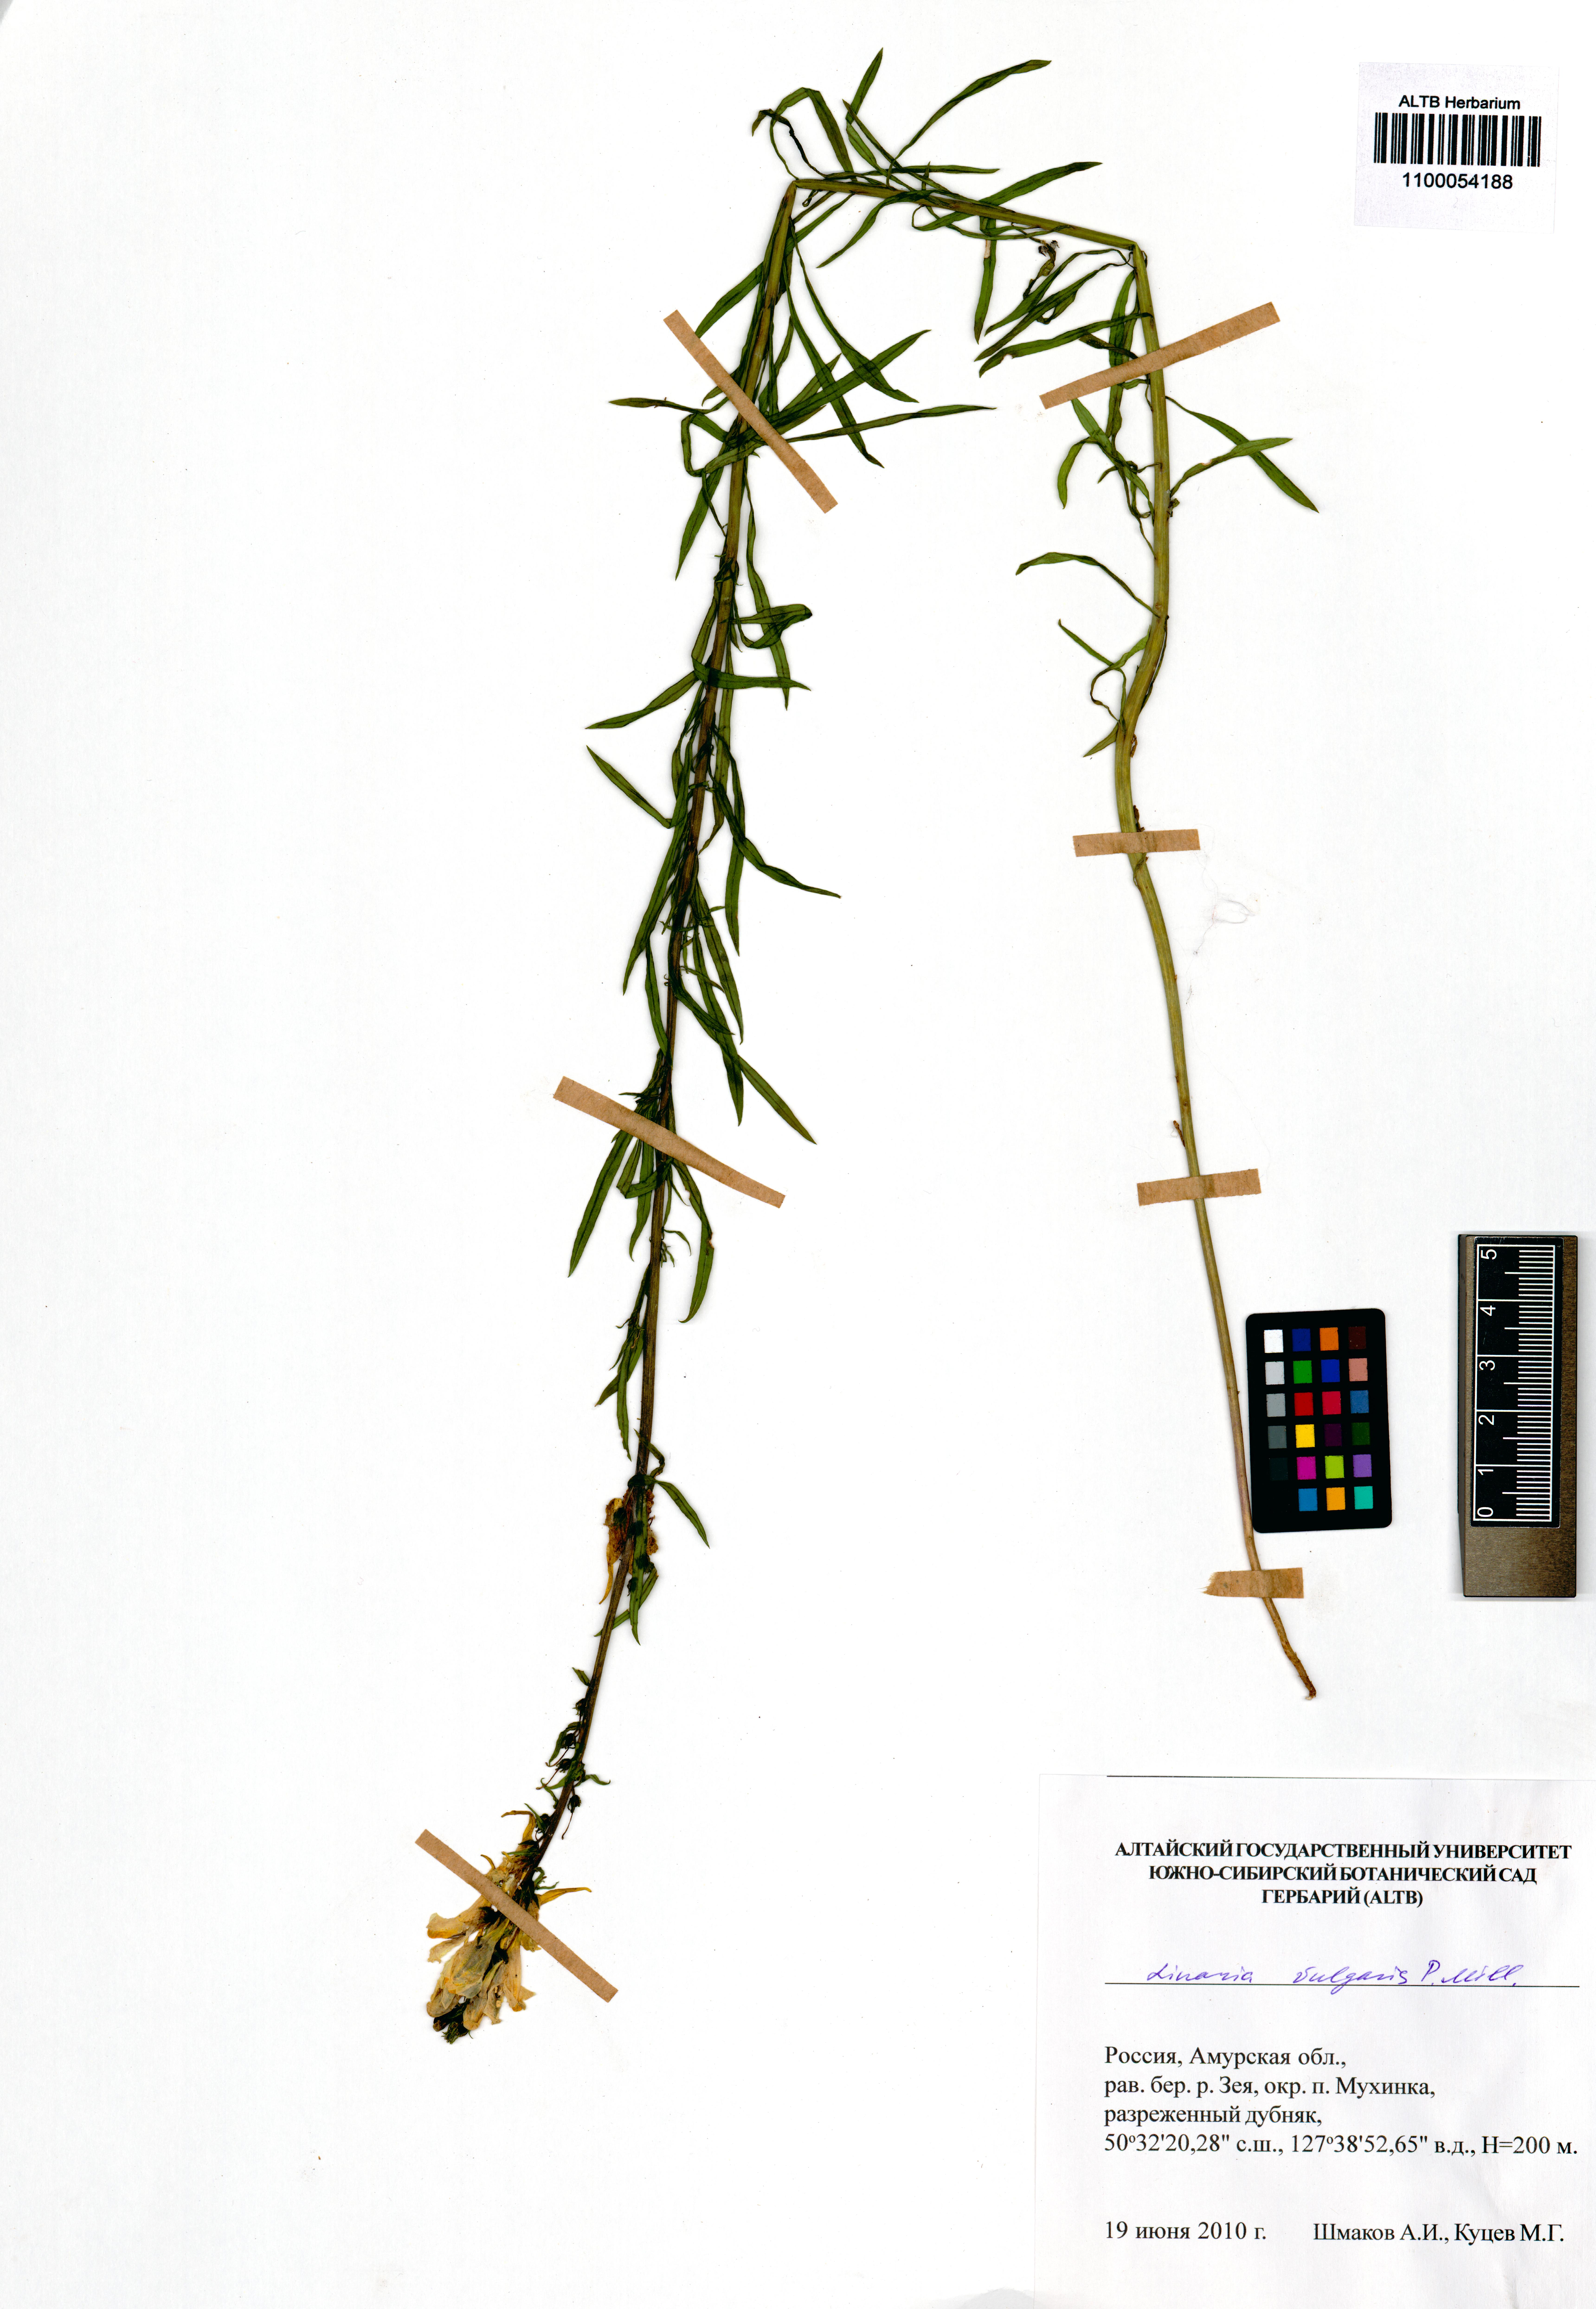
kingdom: Plantae
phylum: Tracheophyta
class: Magnoliopsida
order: Lamiales
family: Plantaginaceae
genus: Linaria
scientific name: Linaria vulgaris
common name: Butter and eggs
